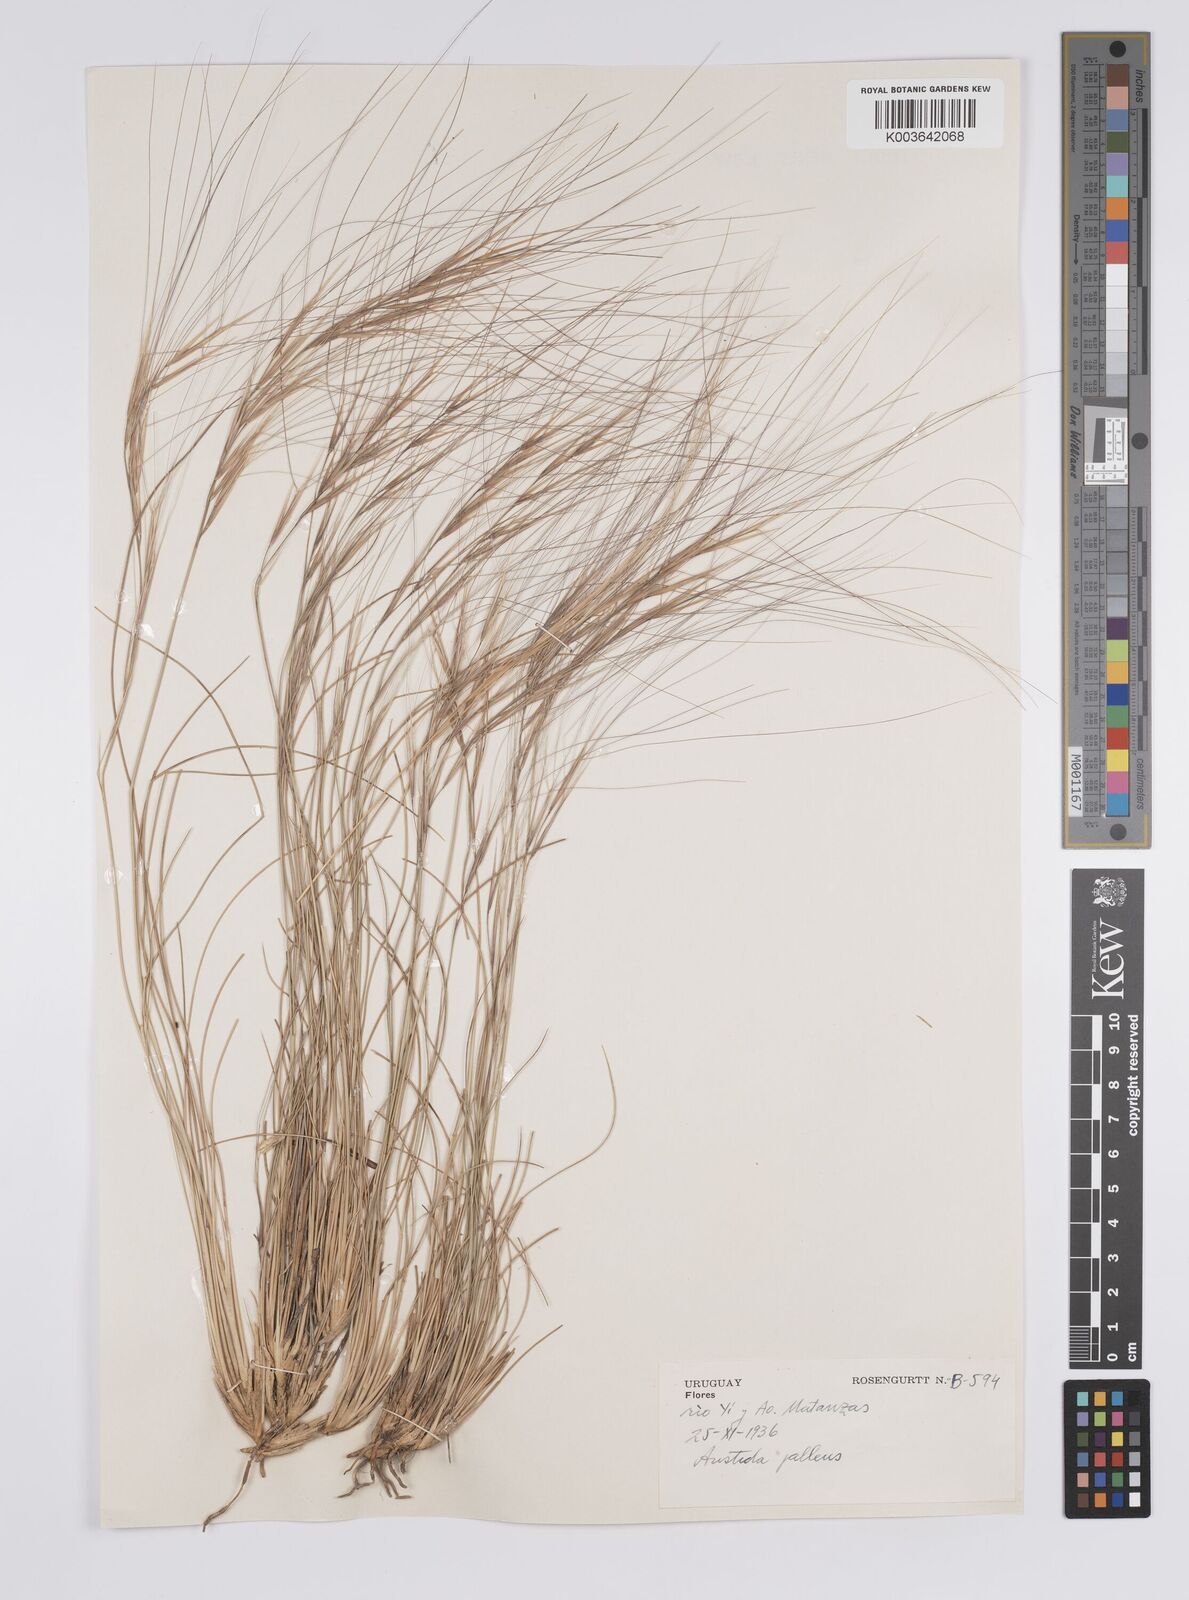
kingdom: Plantae
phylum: Tracheophyta
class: Liliopsida
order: Poales
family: Poaceae
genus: Aristida
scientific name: Aristida pallens
